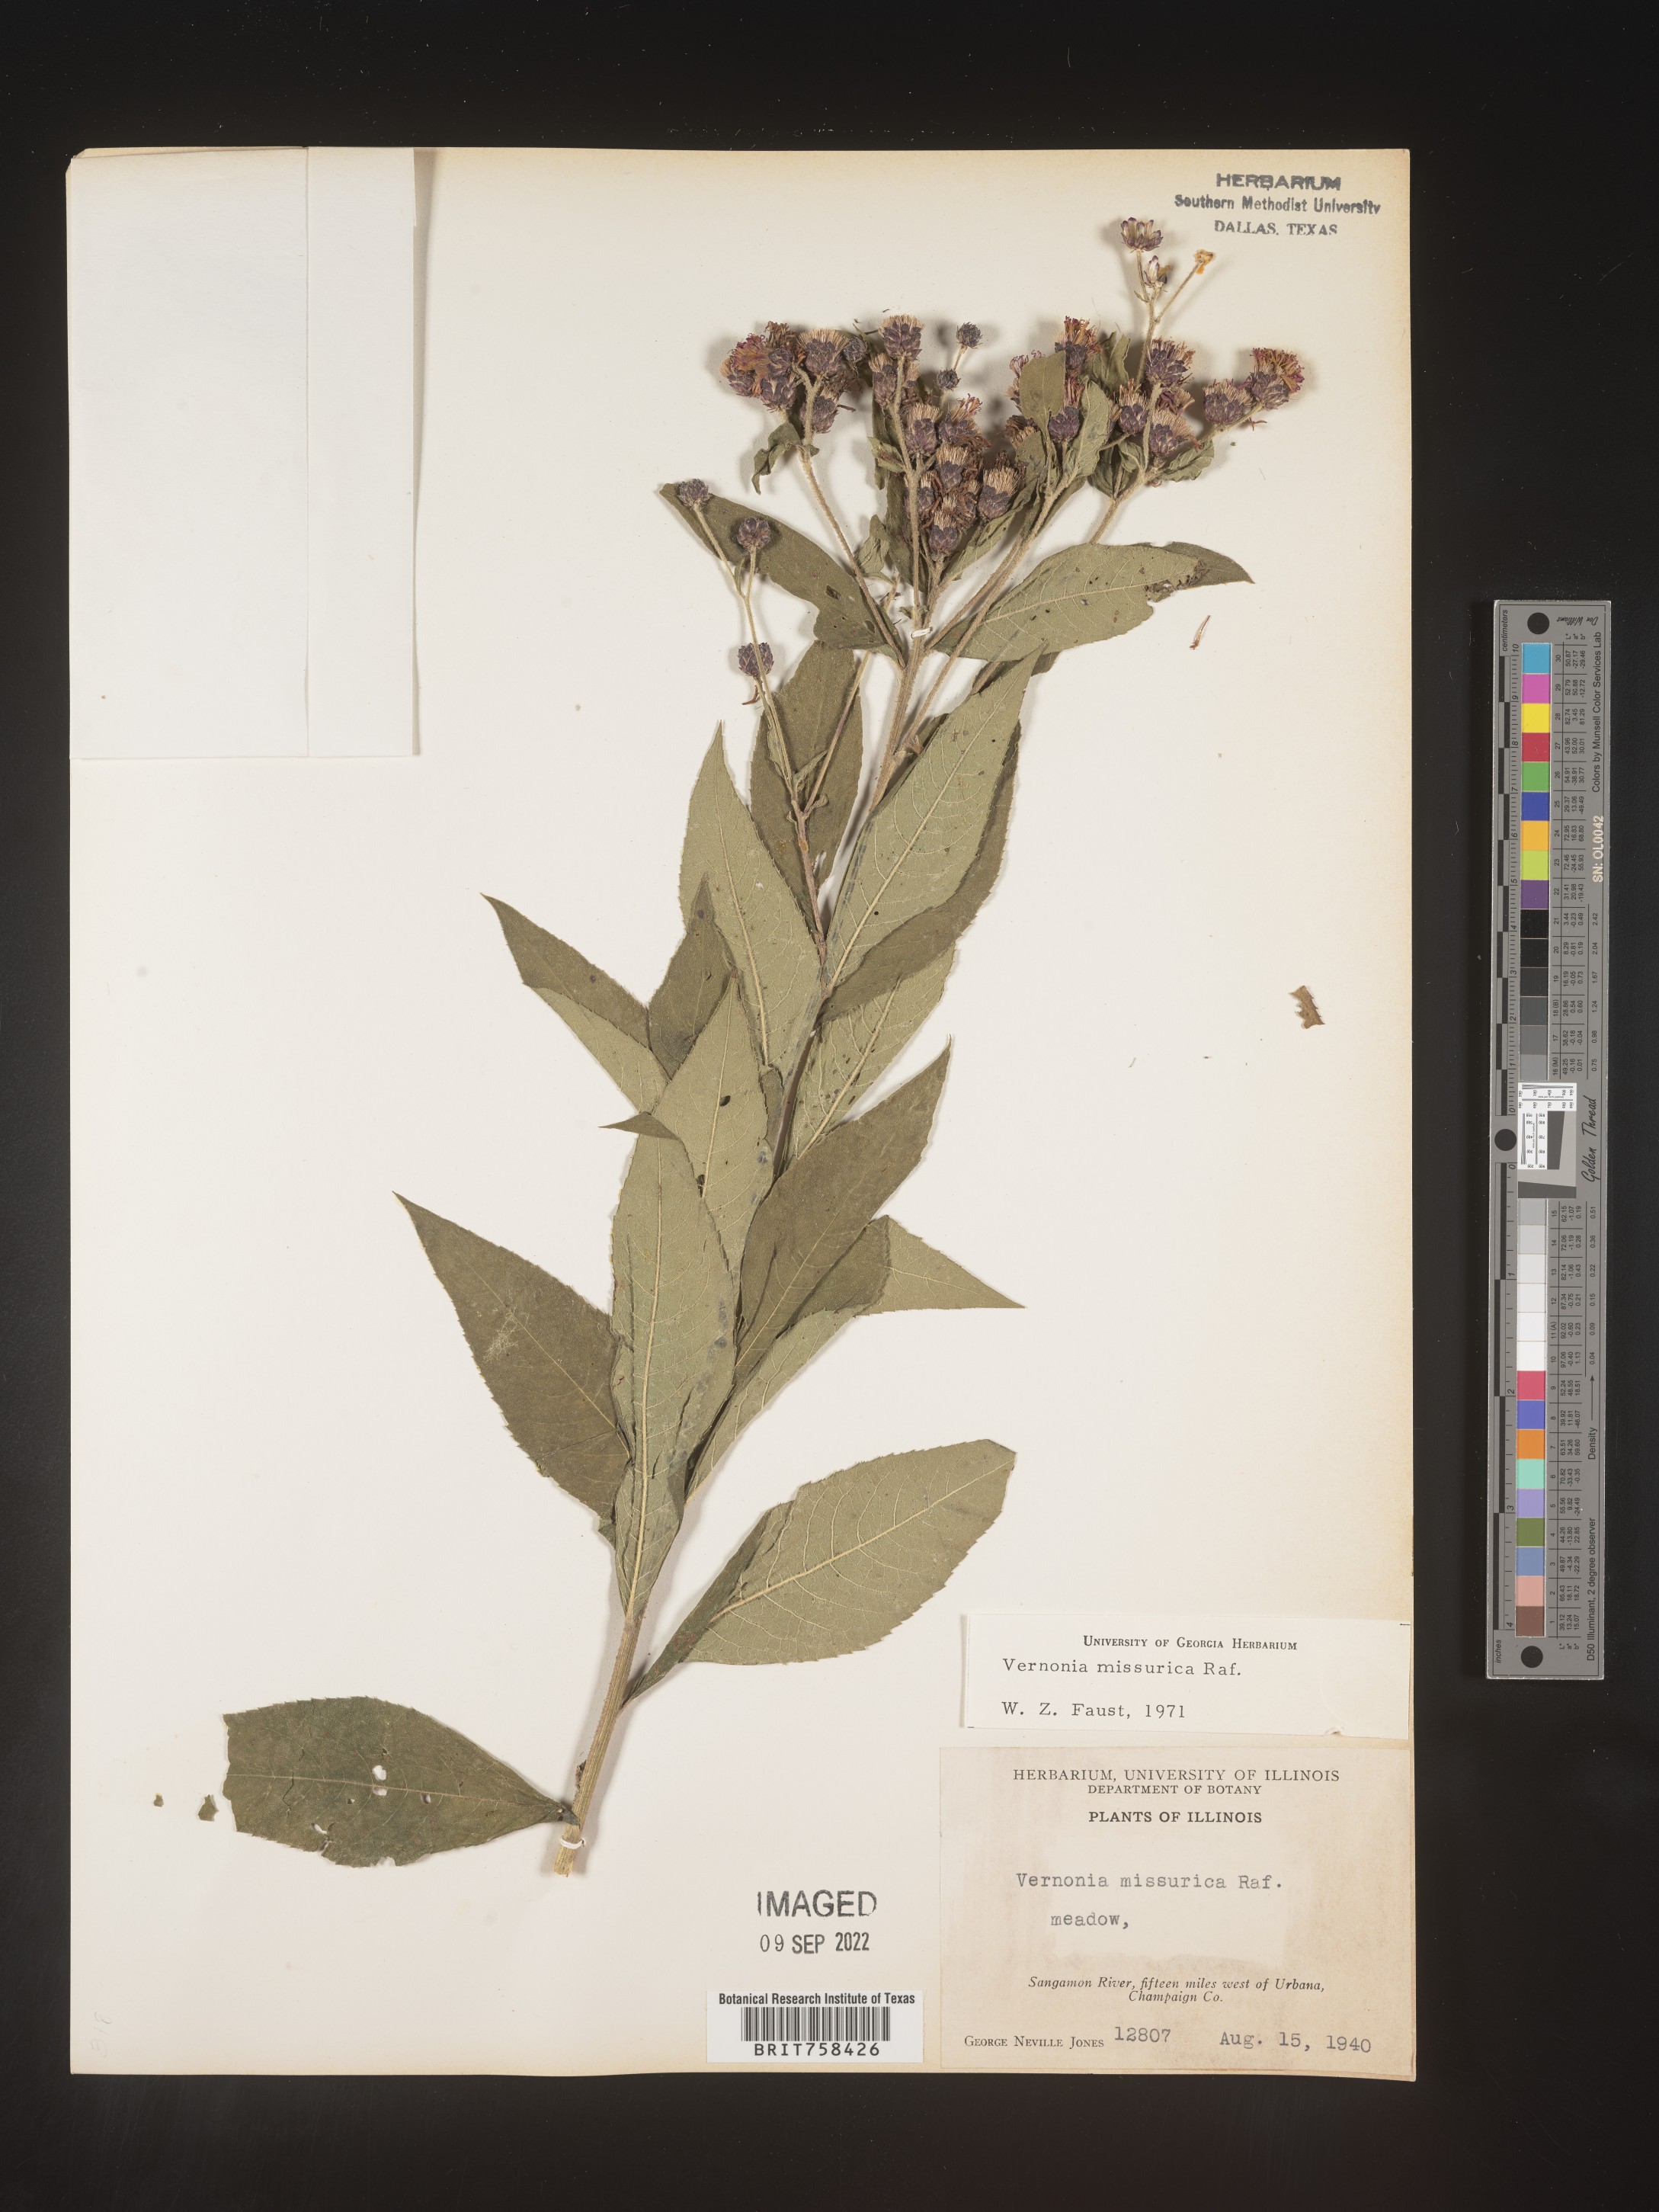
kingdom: Plantae
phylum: Tracheophyta
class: Magnoliopsida
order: Asterales
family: Asteraceae
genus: Vernonia
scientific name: Vernonia missurica
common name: Missouri ironweed
